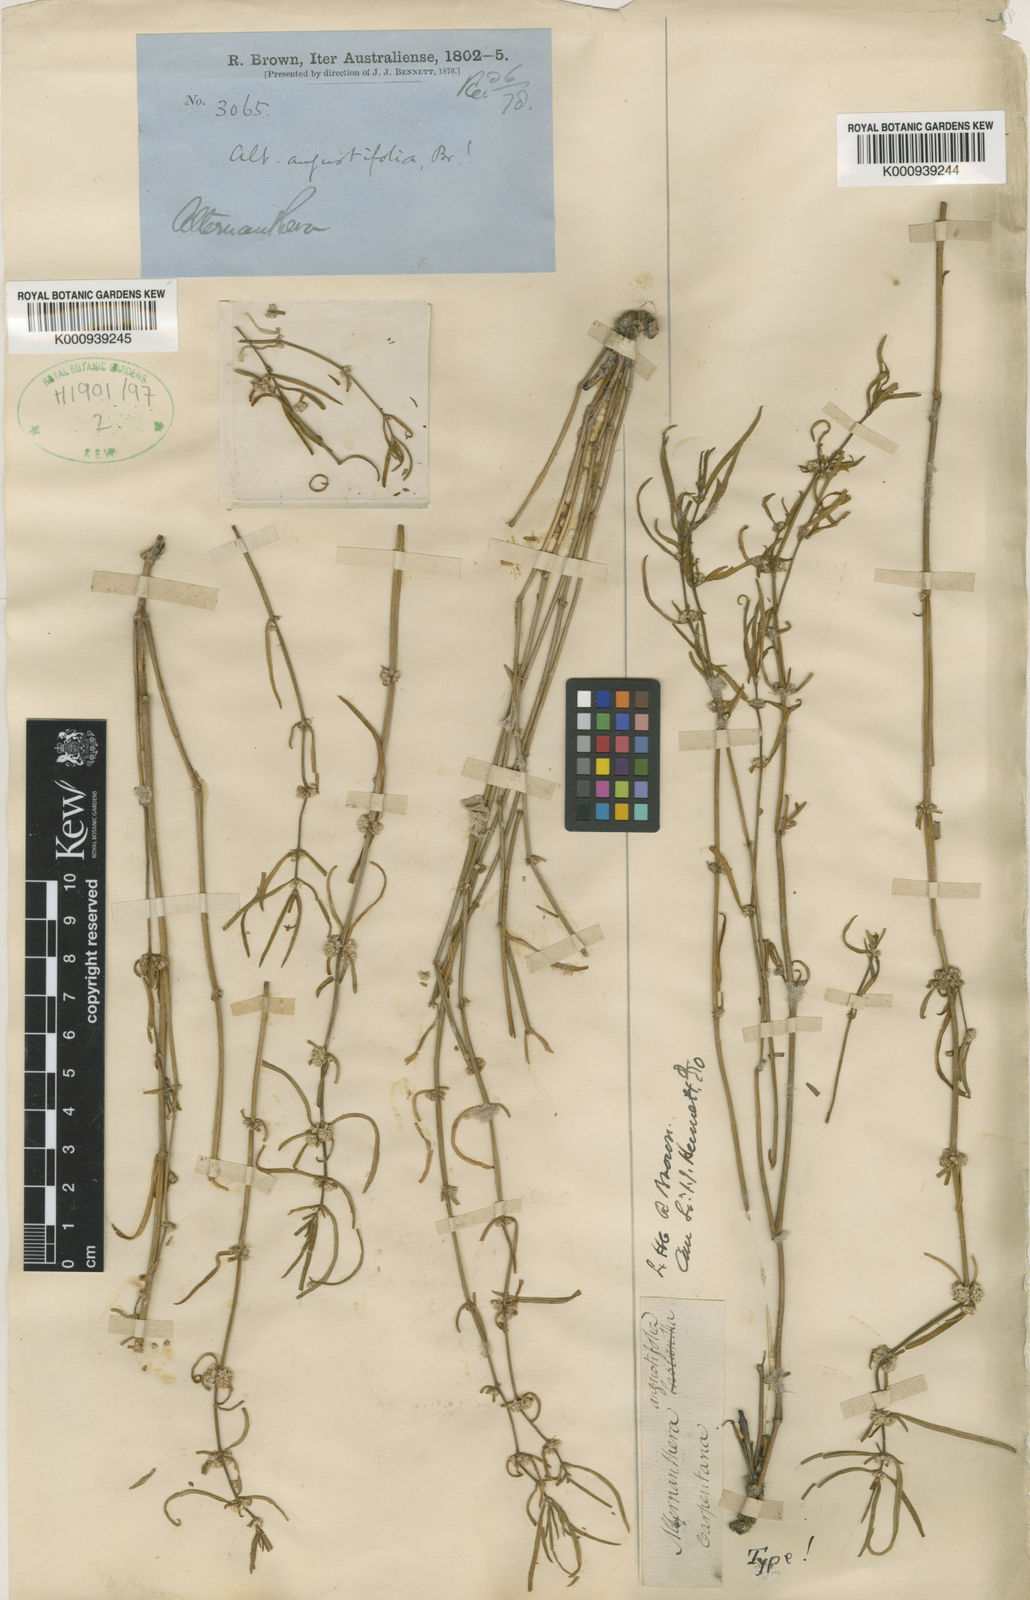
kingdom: Plantae
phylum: Tracheophyta
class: Magnoliopsida
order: Caryophyllales
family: Amaranthaceae
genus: Alternanthera
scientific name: Alternanthera sessilis
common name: Sessile joyweed
